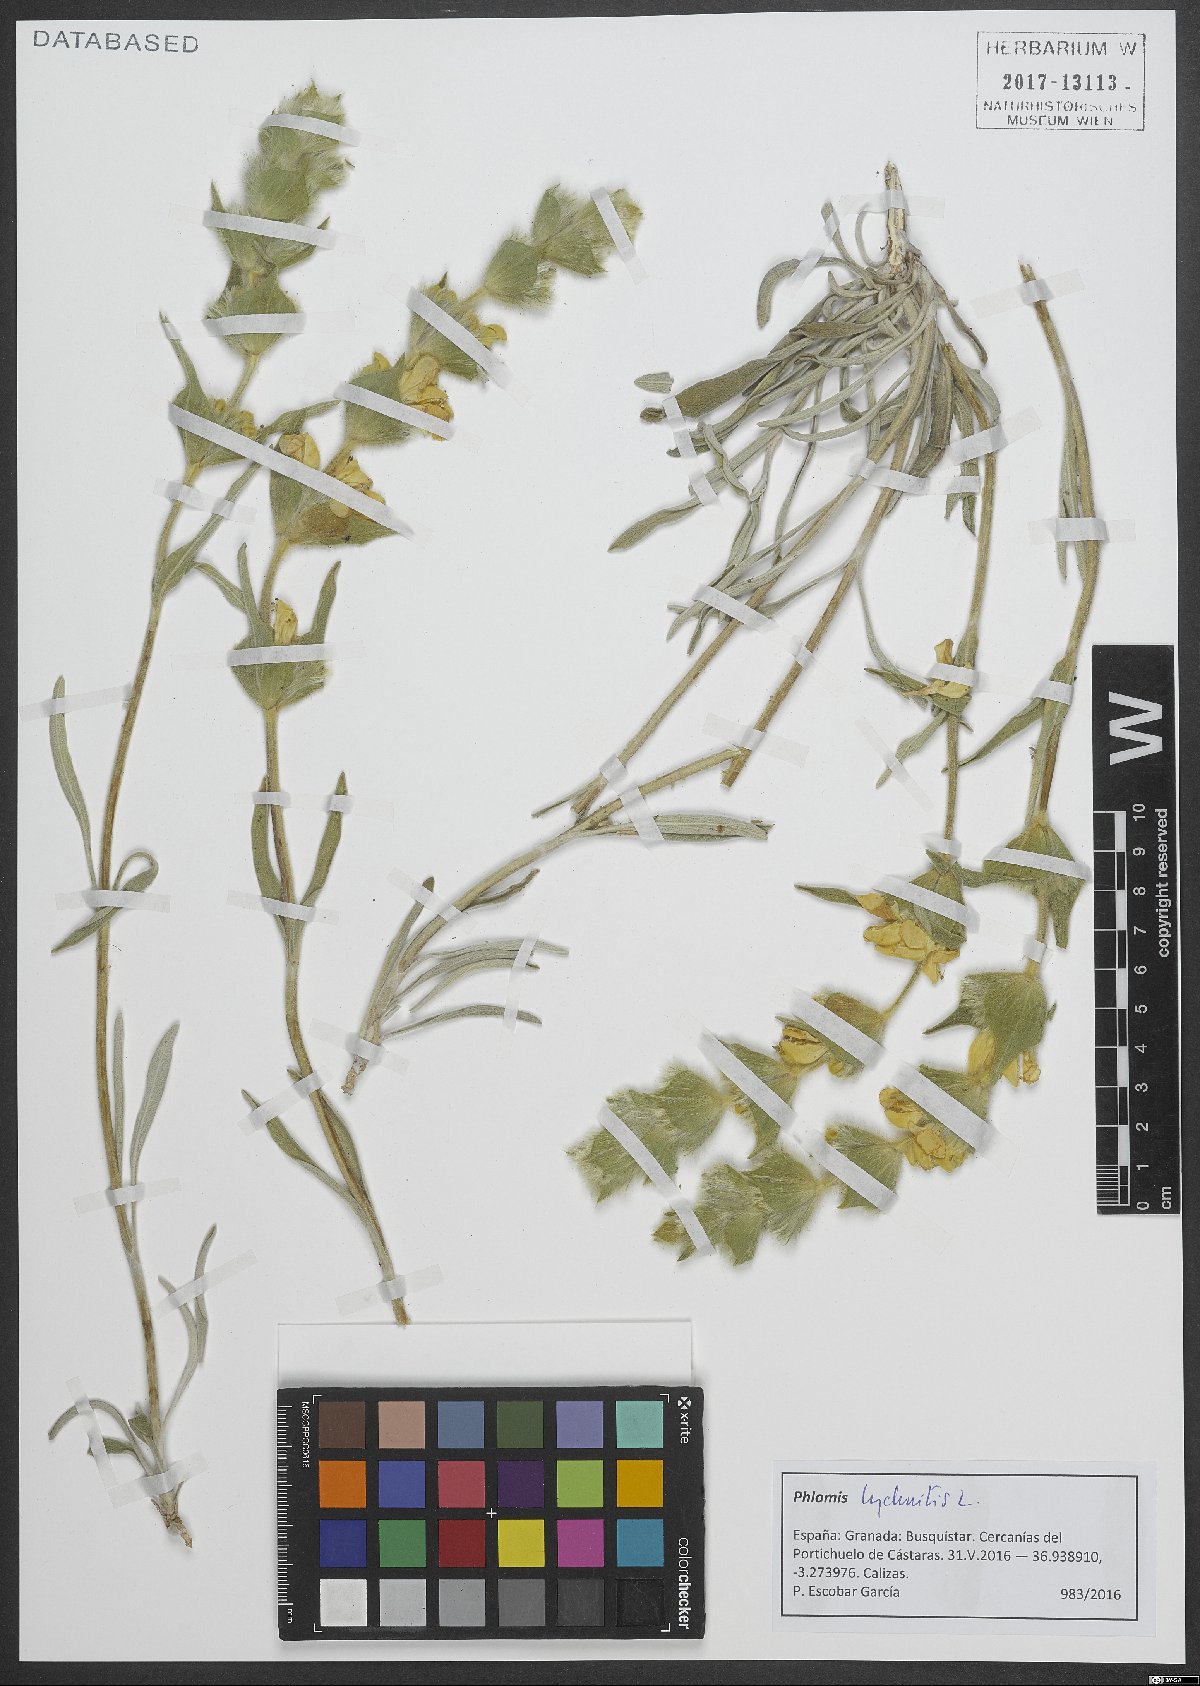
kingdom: Plantae
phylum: Tracheophyta
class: Magnoliopsida
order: Lamiales
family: Lamiaceae
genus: Phlomis
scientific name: Phlomis lychnitis
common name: Lampwickplant
